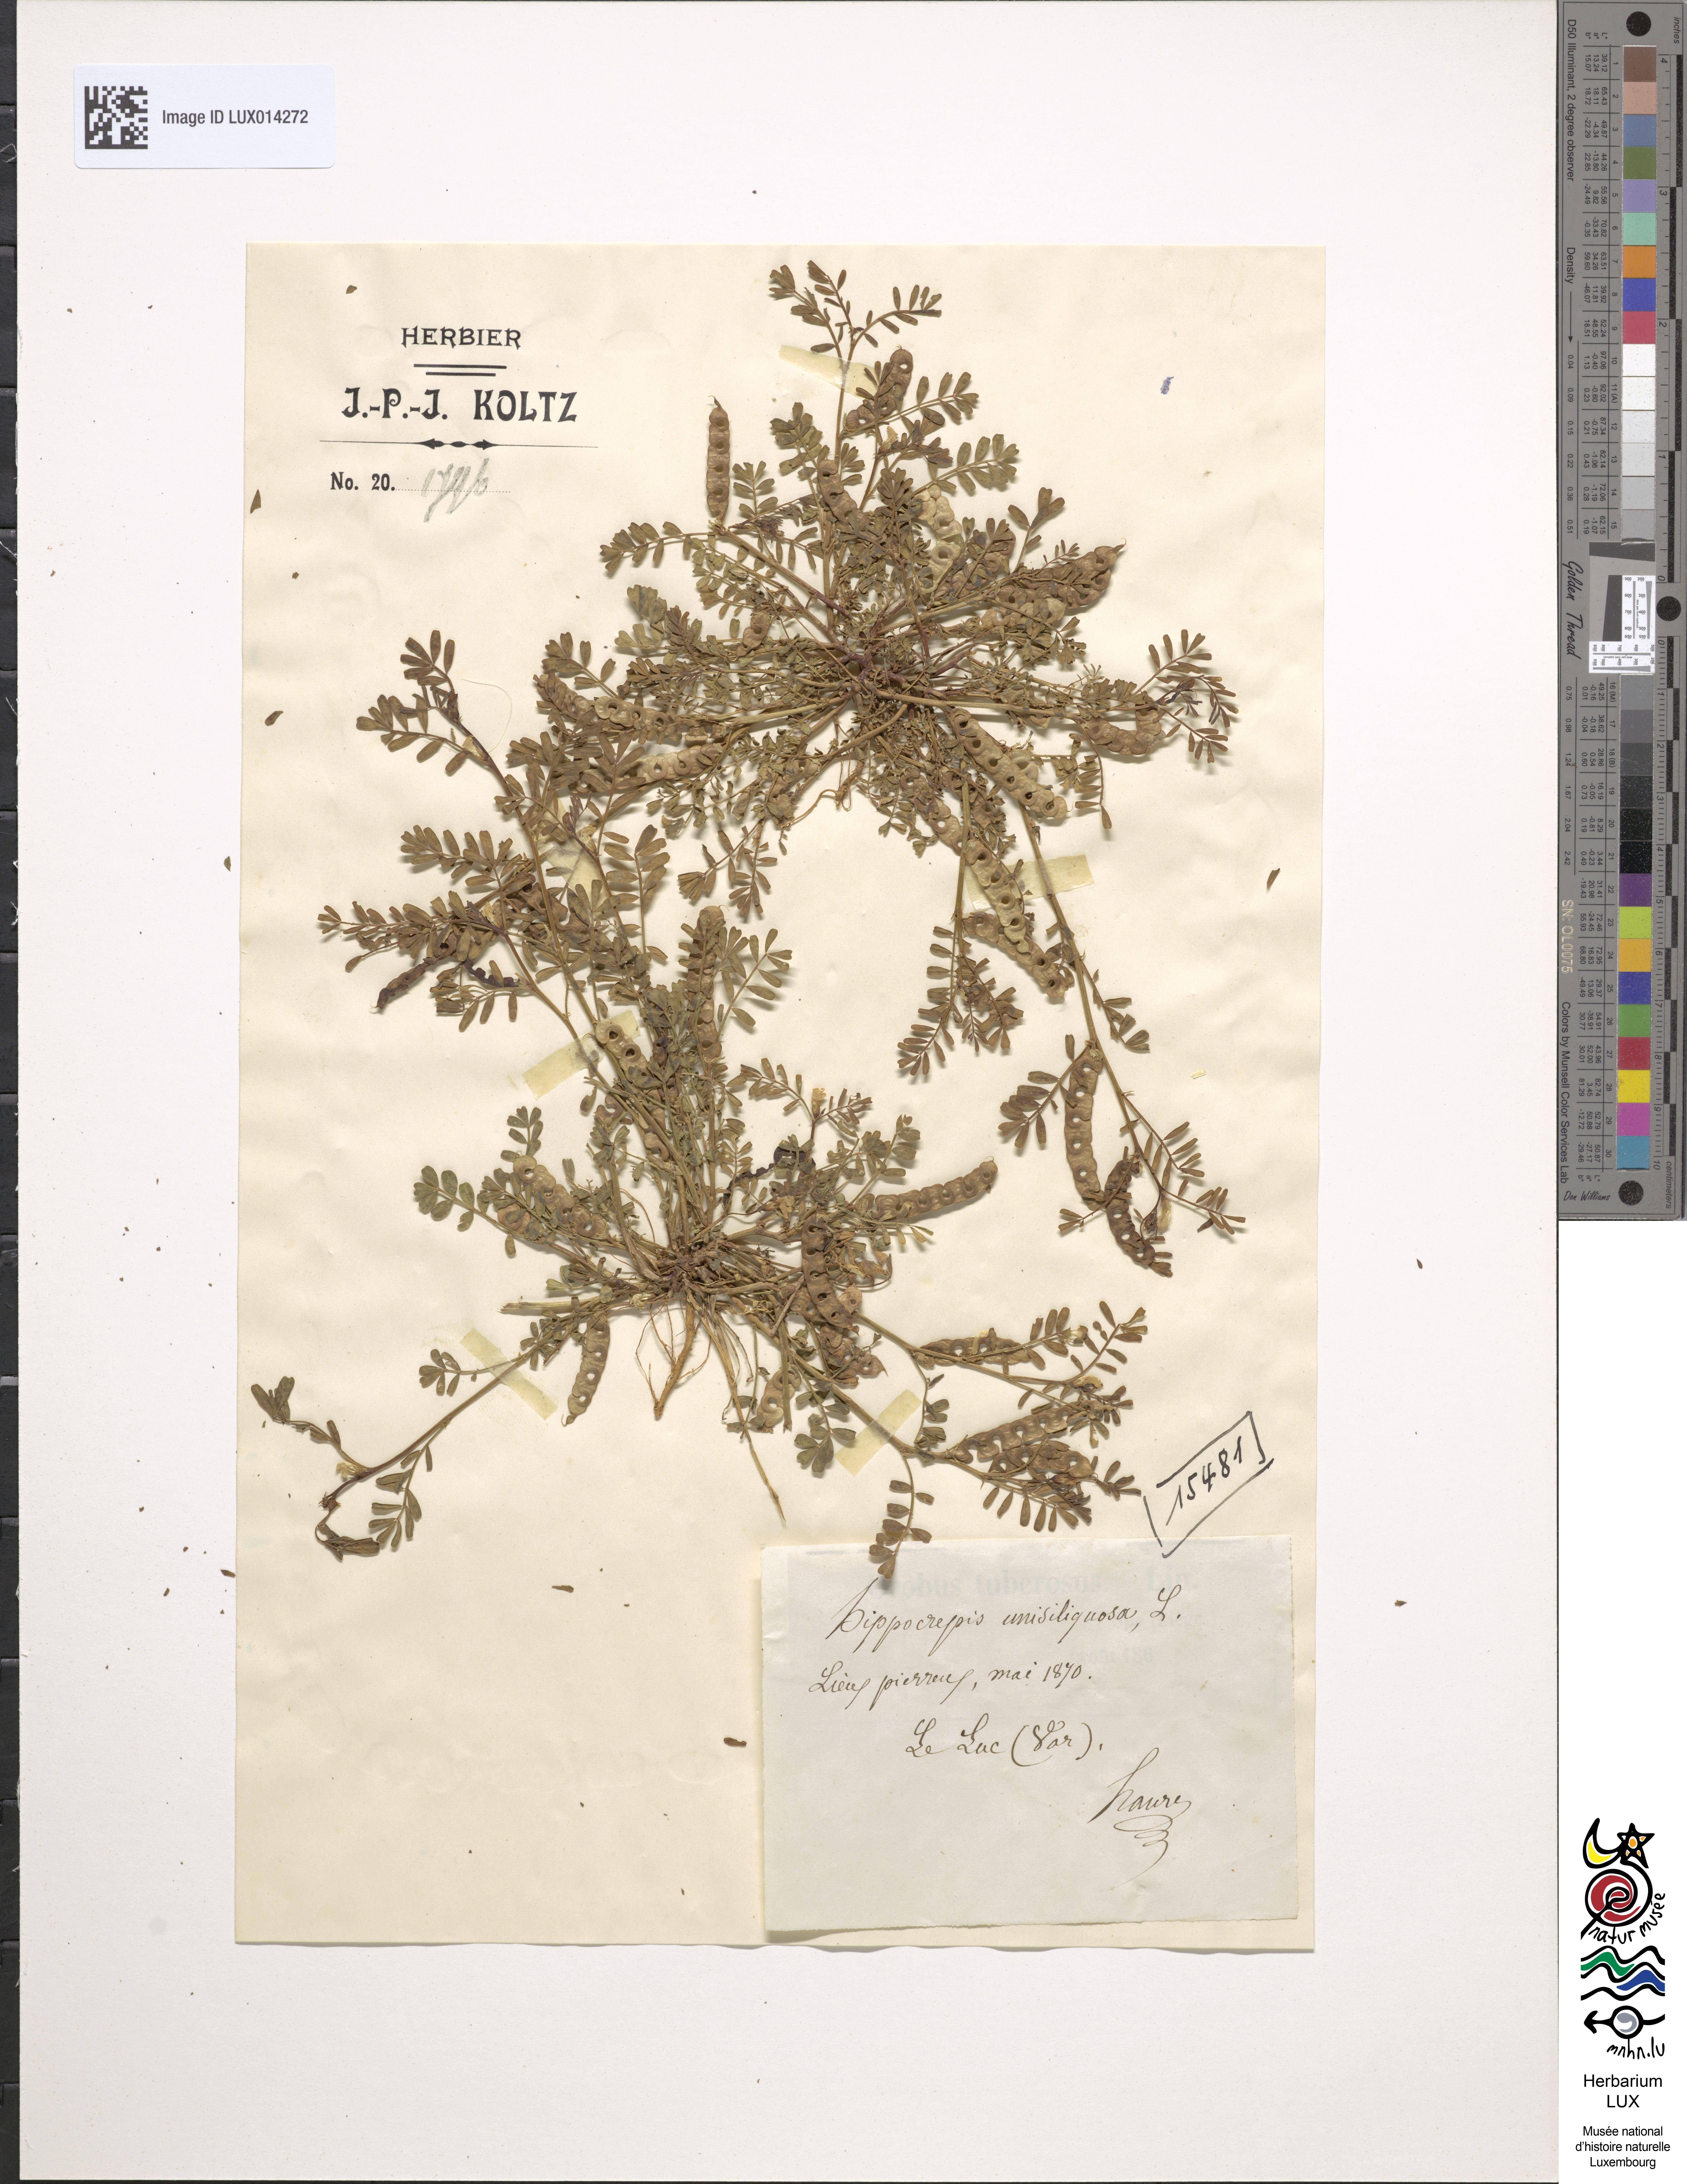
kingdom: Plantae
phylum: Tracheophyta
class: Magnoliopsida
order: Fabales
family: Fabaceae
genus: Hippocrepis
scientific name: Hippocrepis unisiliquosa
